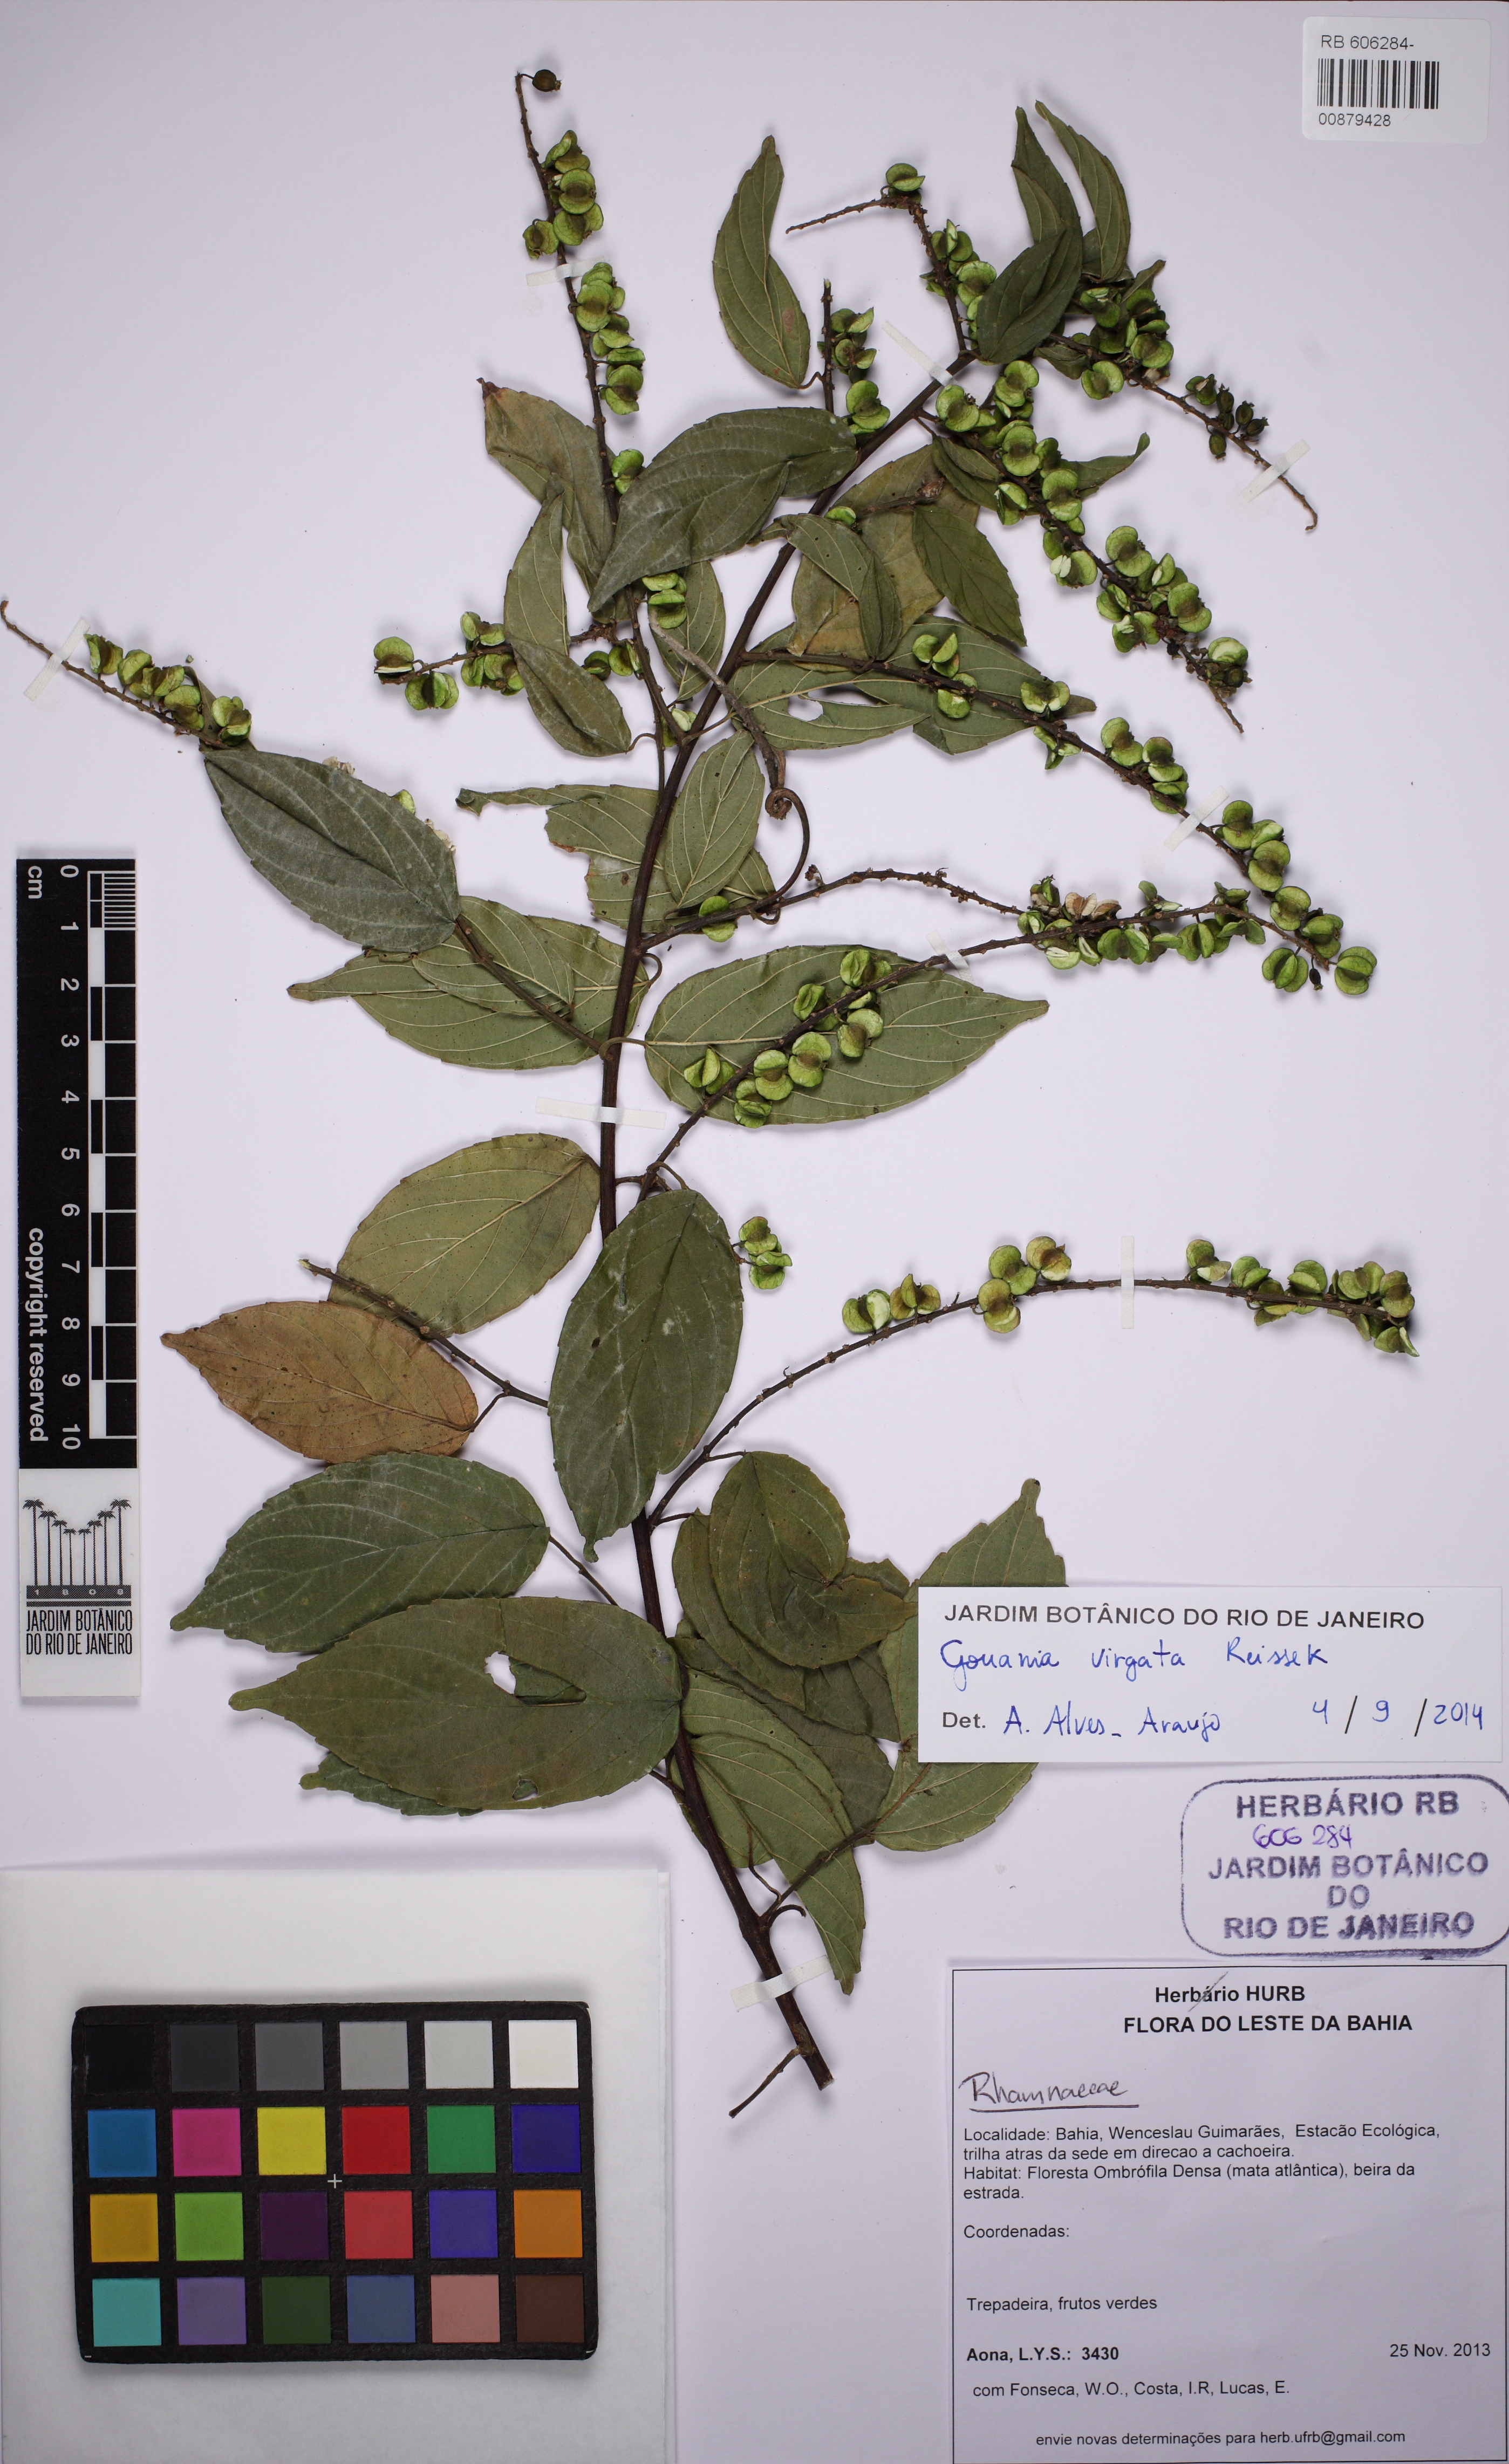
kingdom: Plantae
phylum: Tracheophyta
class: Magnoliopsida
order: Rosales
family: Rhamnaceae
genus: Gouania
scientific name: Gouania lupuloides
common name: Chewstick
